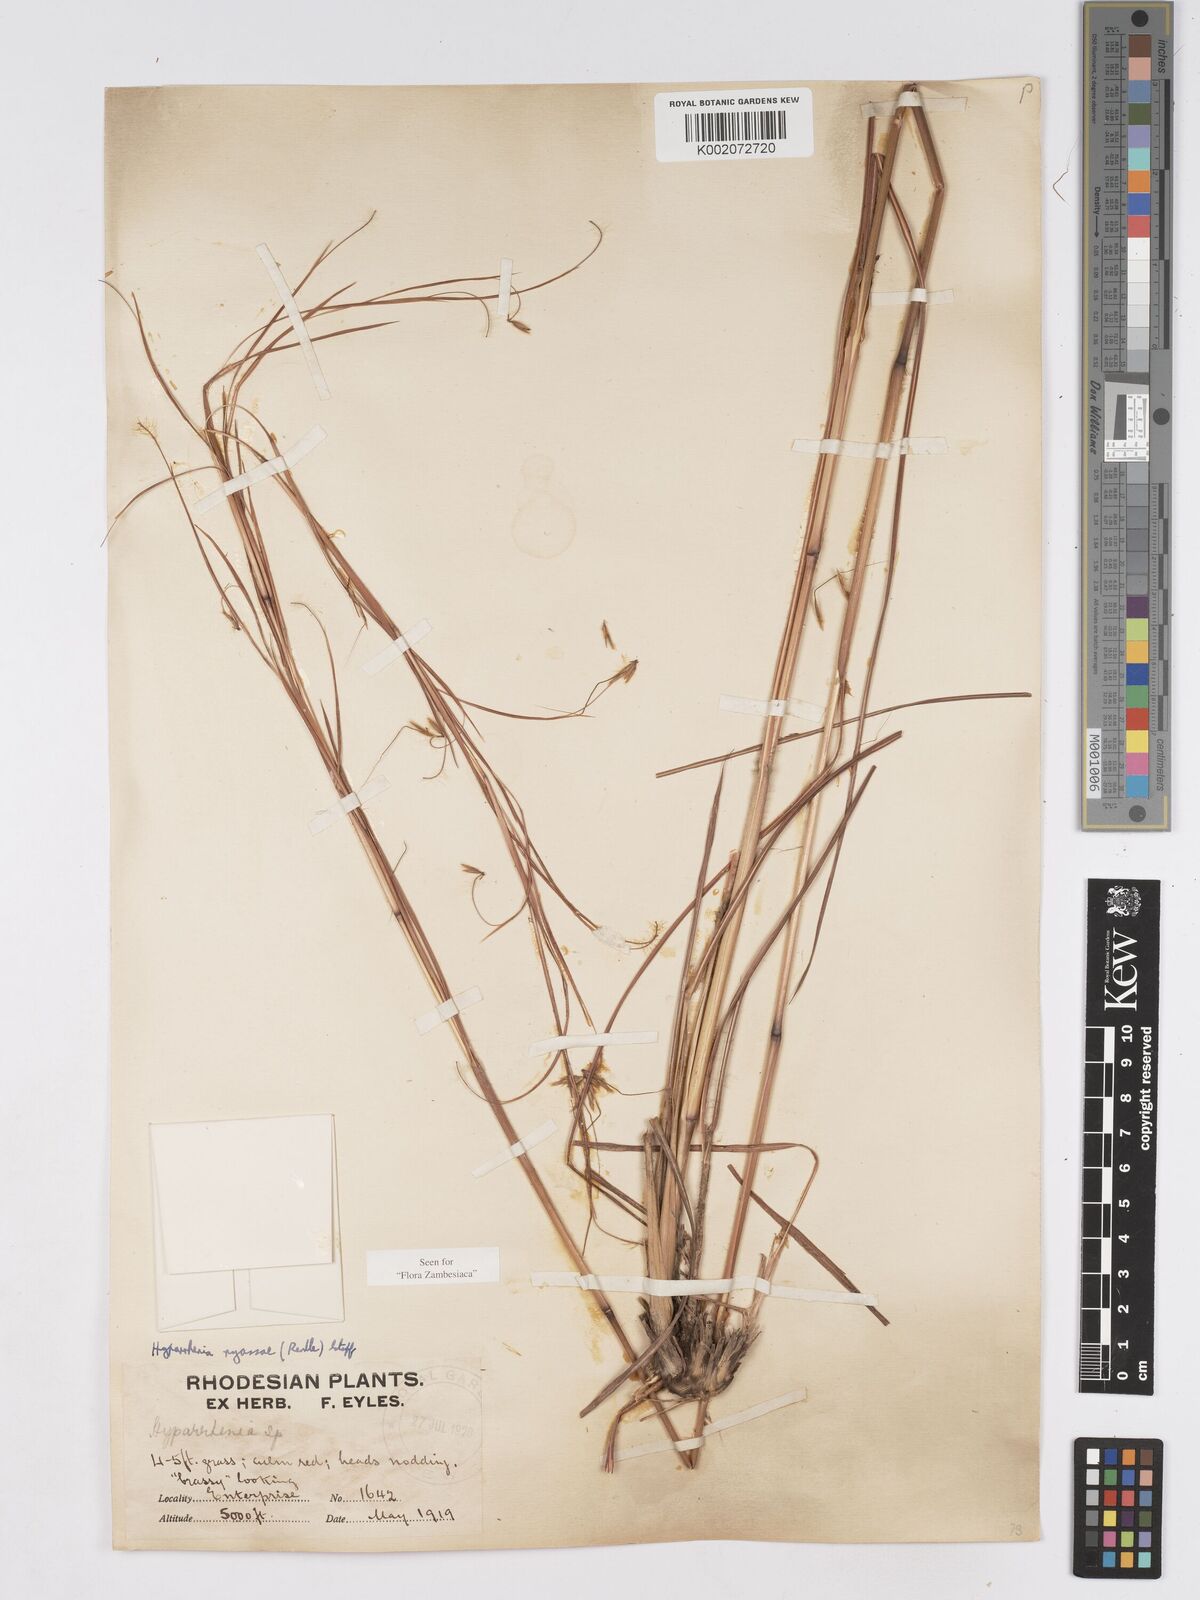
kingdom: Plantae
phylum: Tracheophyta
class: Liliopsida
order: Poales
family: Poaceae
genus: Hyparrhenia
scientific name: Hyparrhenia nyassae
